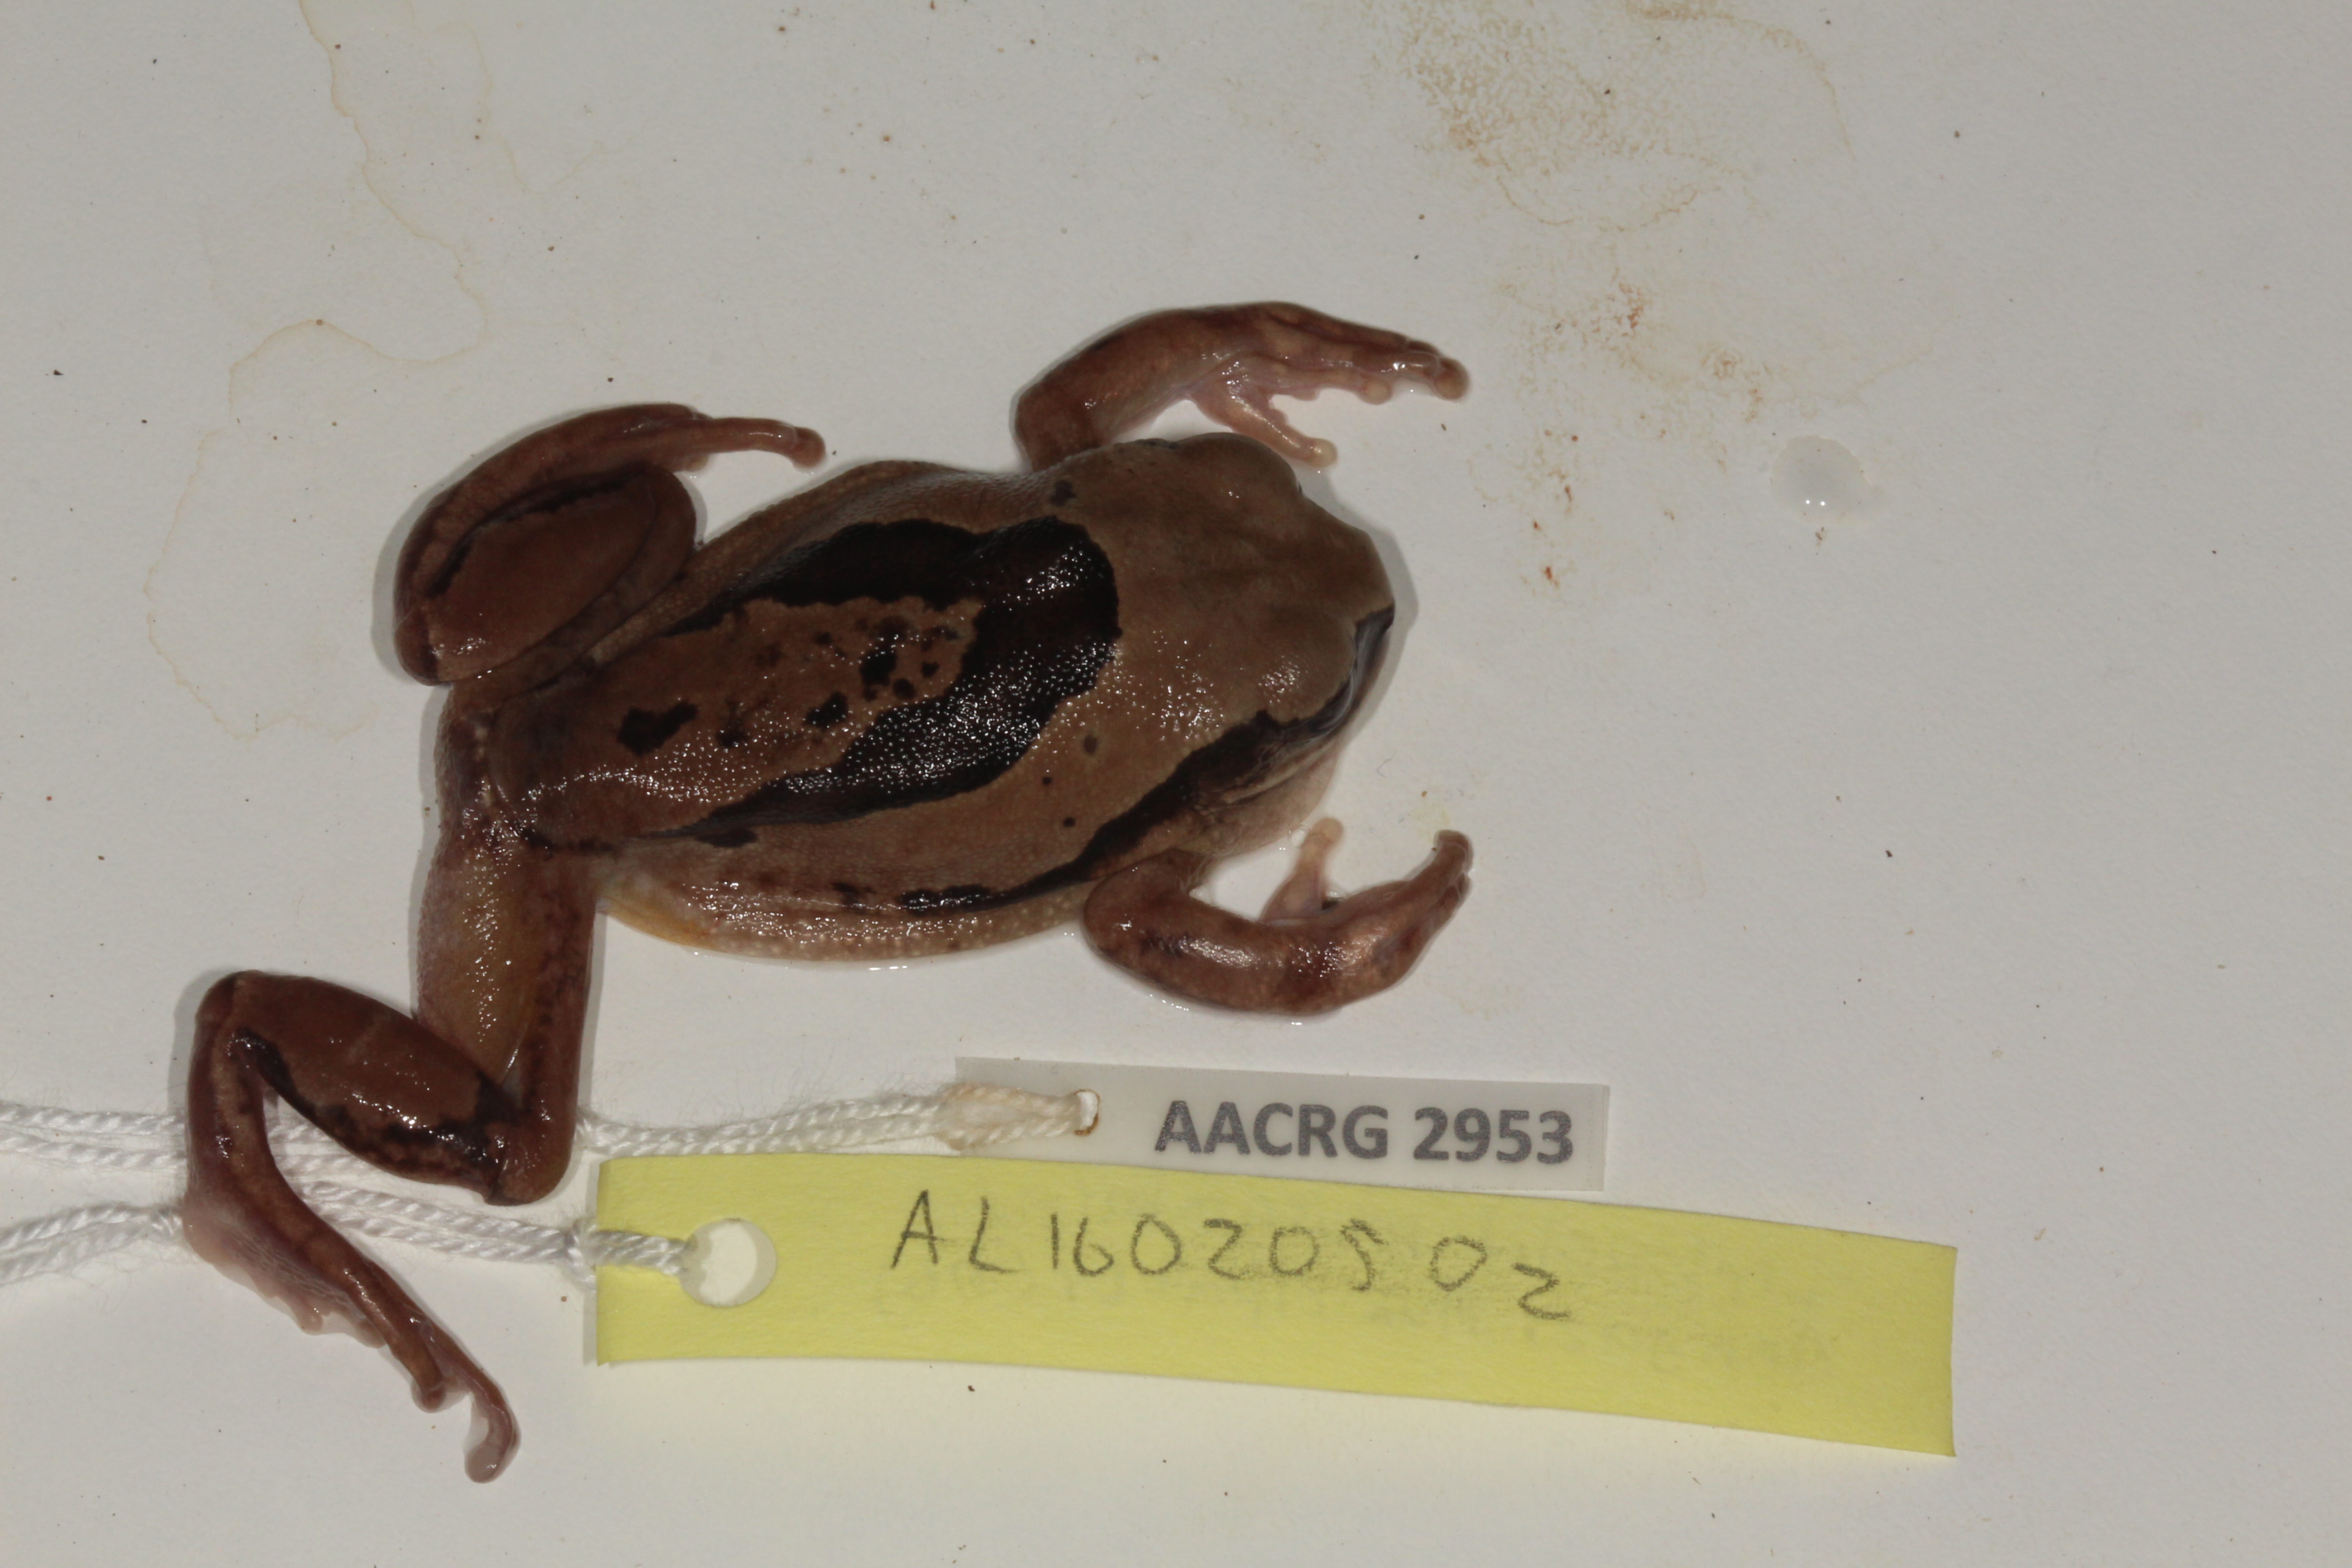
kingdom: Animalia
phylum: Chordata
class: Amphibia
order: Anura
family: Arthroleptidae
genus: Leptopelis
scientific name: Leptopelis mossambicus
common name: Mozambique tree frog
